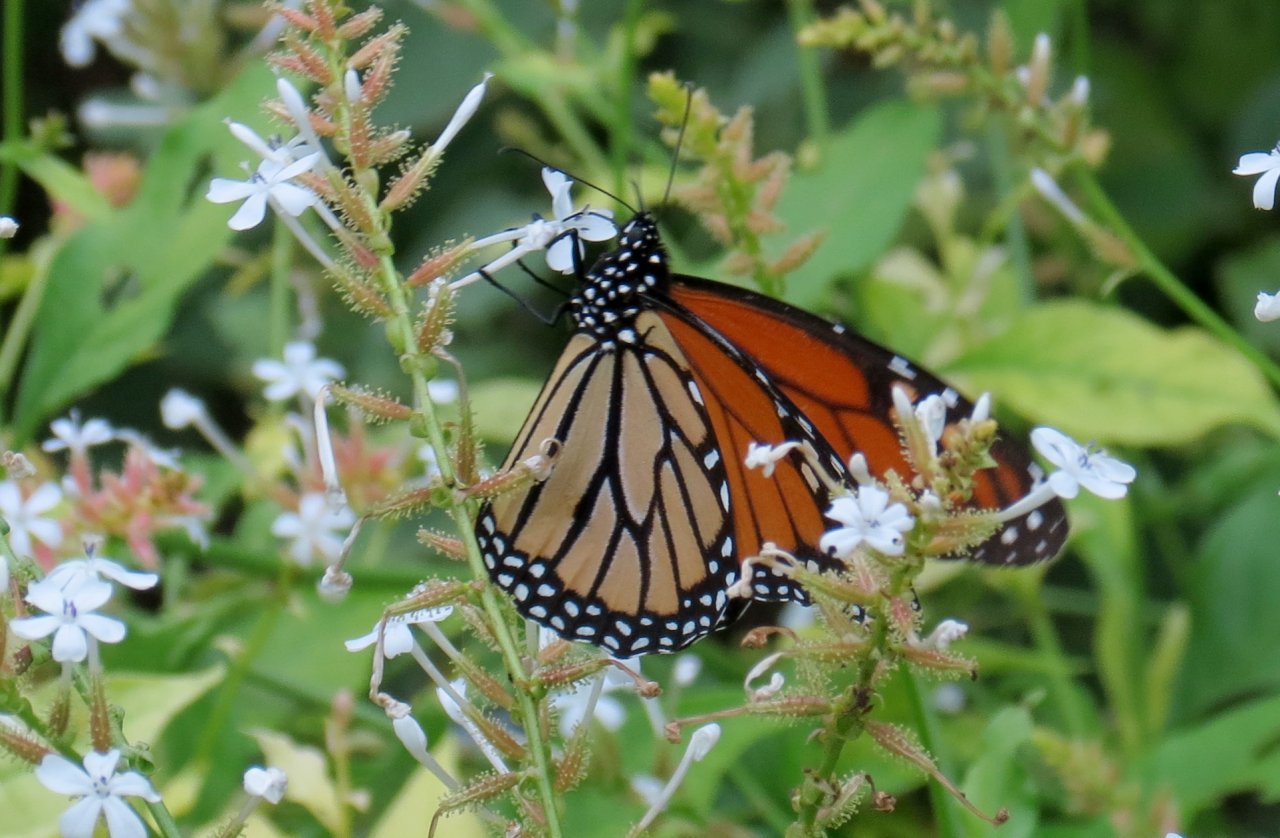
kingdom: Animalia
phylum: Arthropoda
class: Insecta
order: Lepidoptera
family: Nymphalidae
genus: Danaus
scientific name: Danaus plexippus
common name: Monarch
